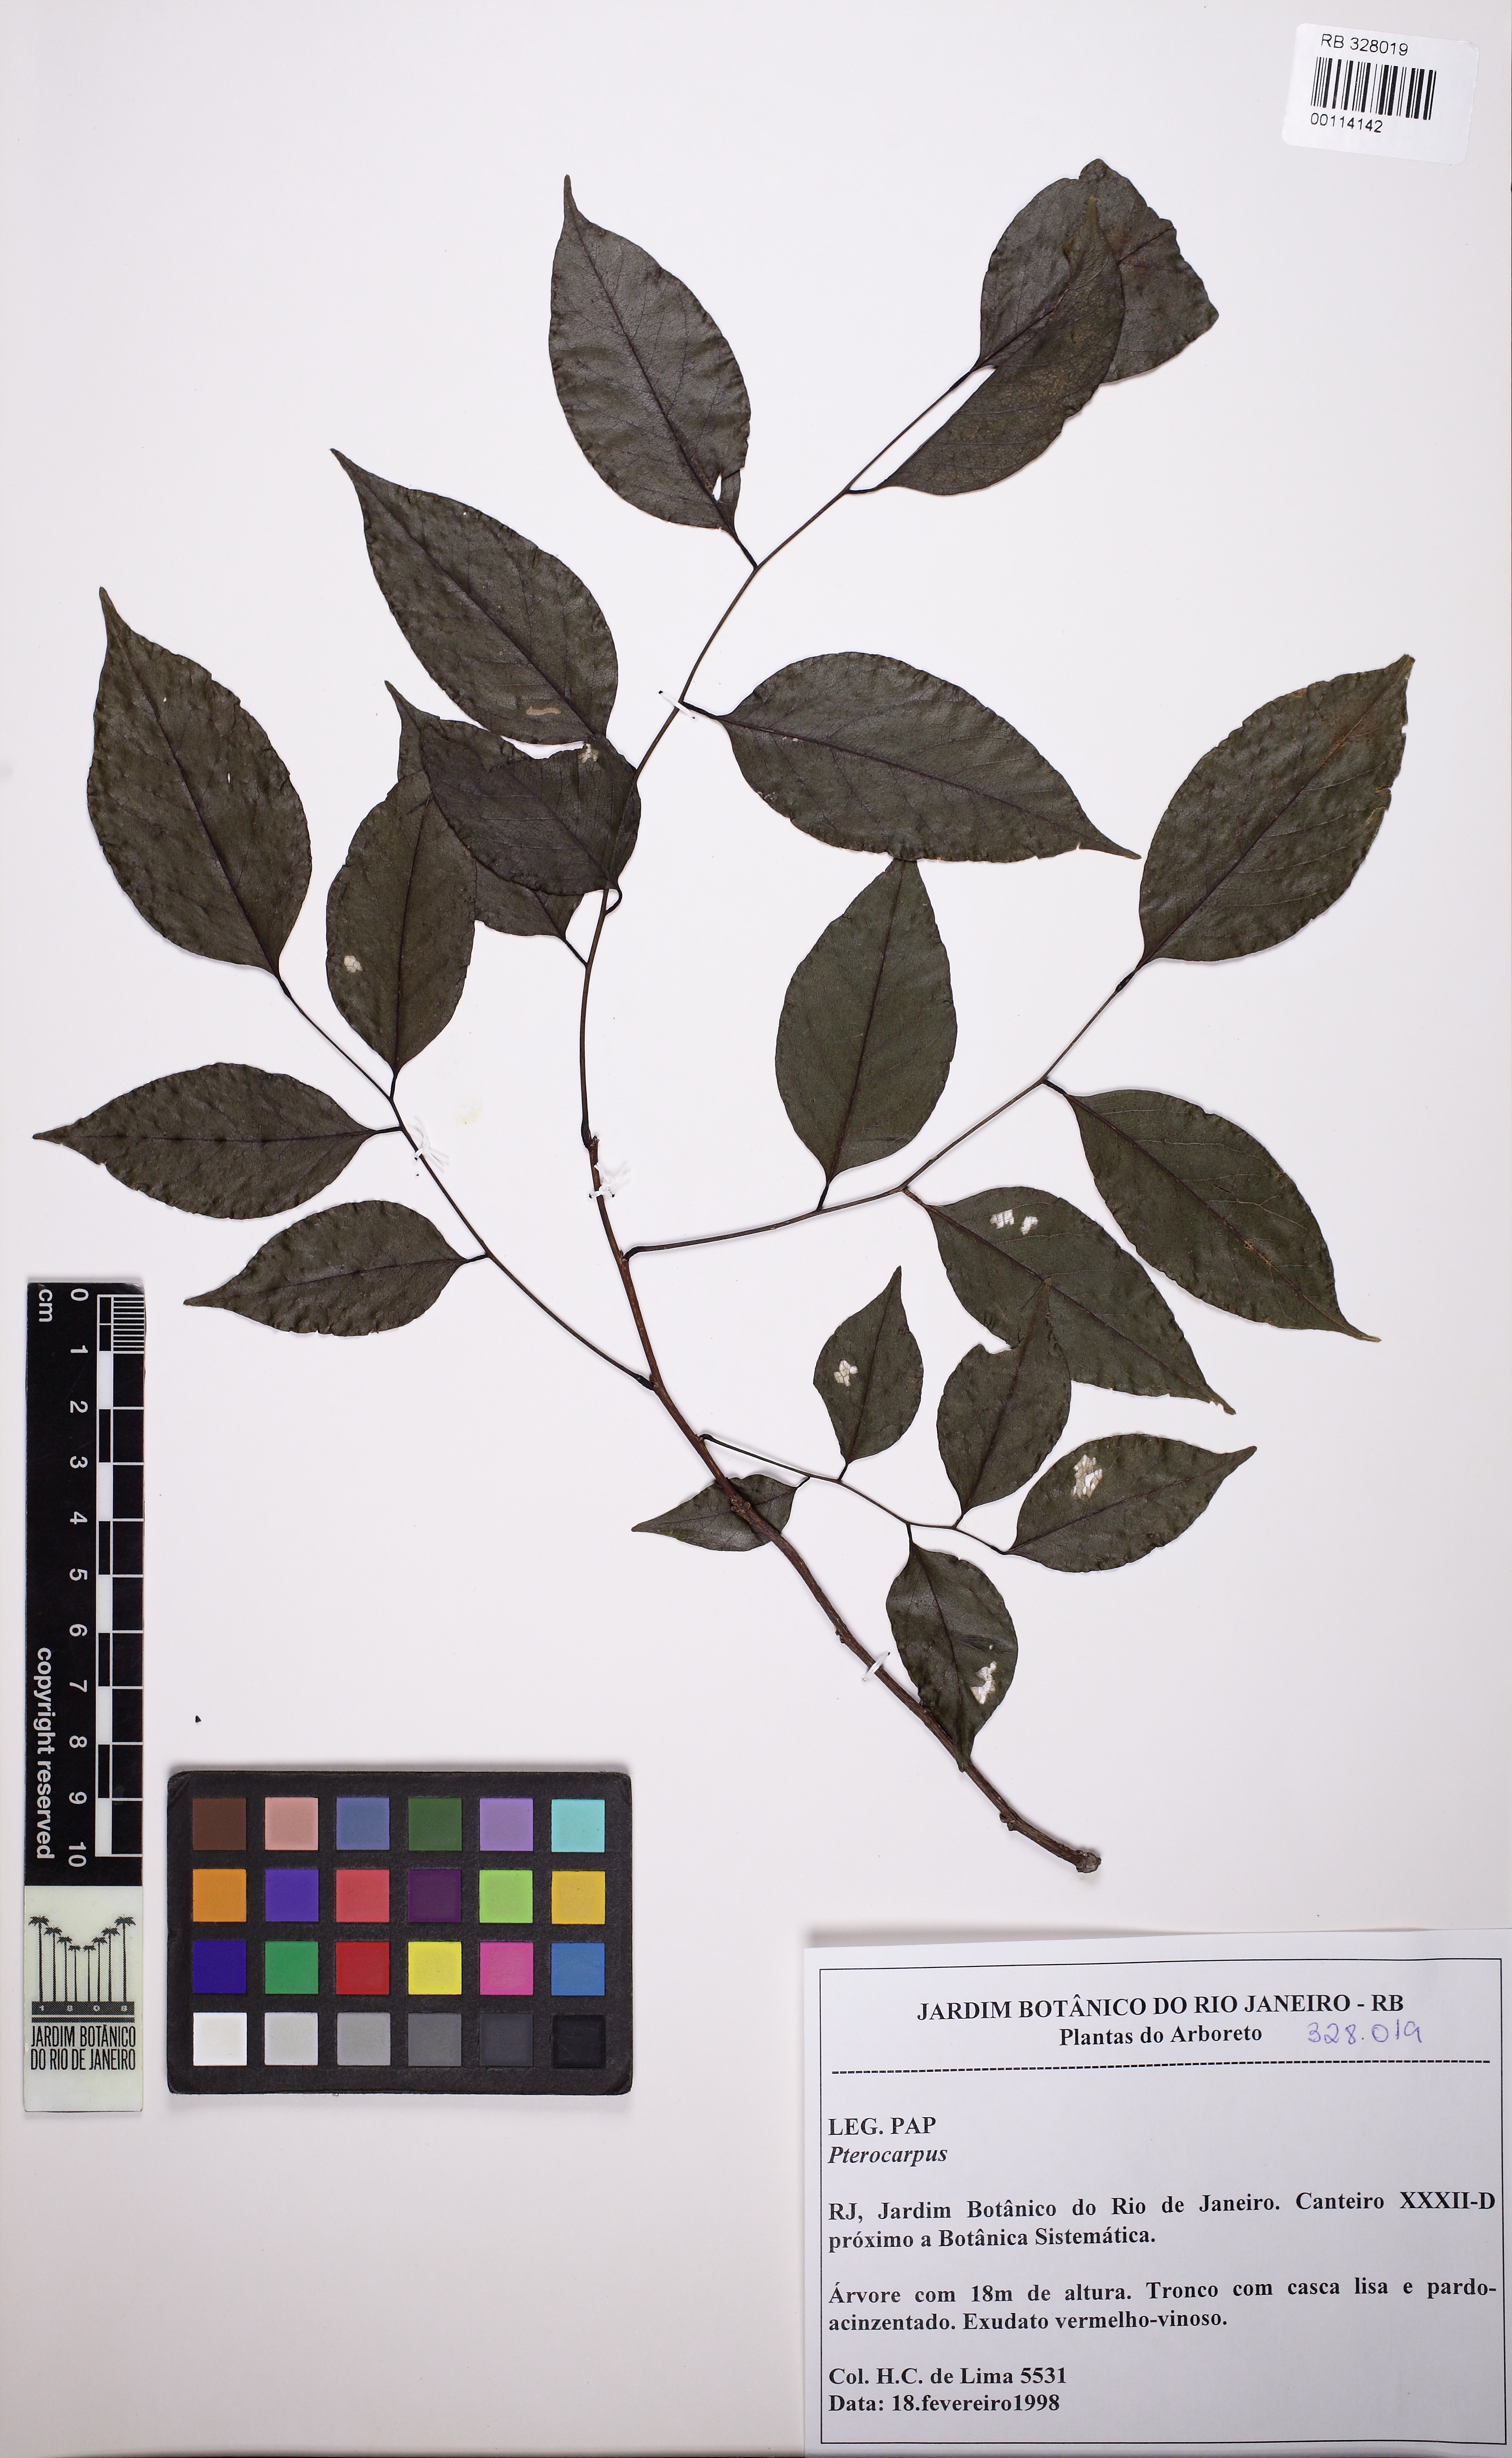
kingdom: Plantae
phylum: Tracheophyta
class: Magnoliopsida
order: Fabales
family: Fabaceae
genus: Pterocarpus
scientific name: Pterocarpus
